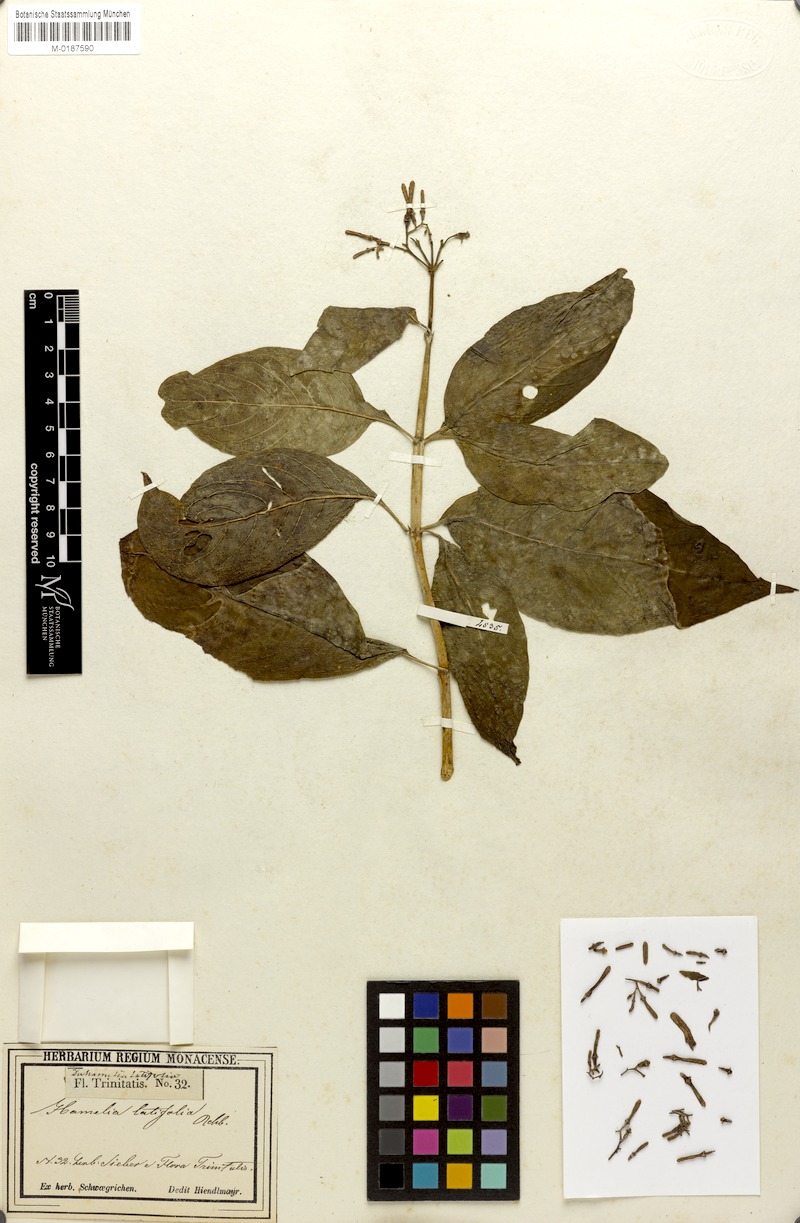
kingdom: Plantae
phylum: Tracheophyta
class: Magnoliopsida
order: Gentianales
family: Rubiaceae
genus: Hamelia
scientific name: Hamelia patens
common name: Redhead
